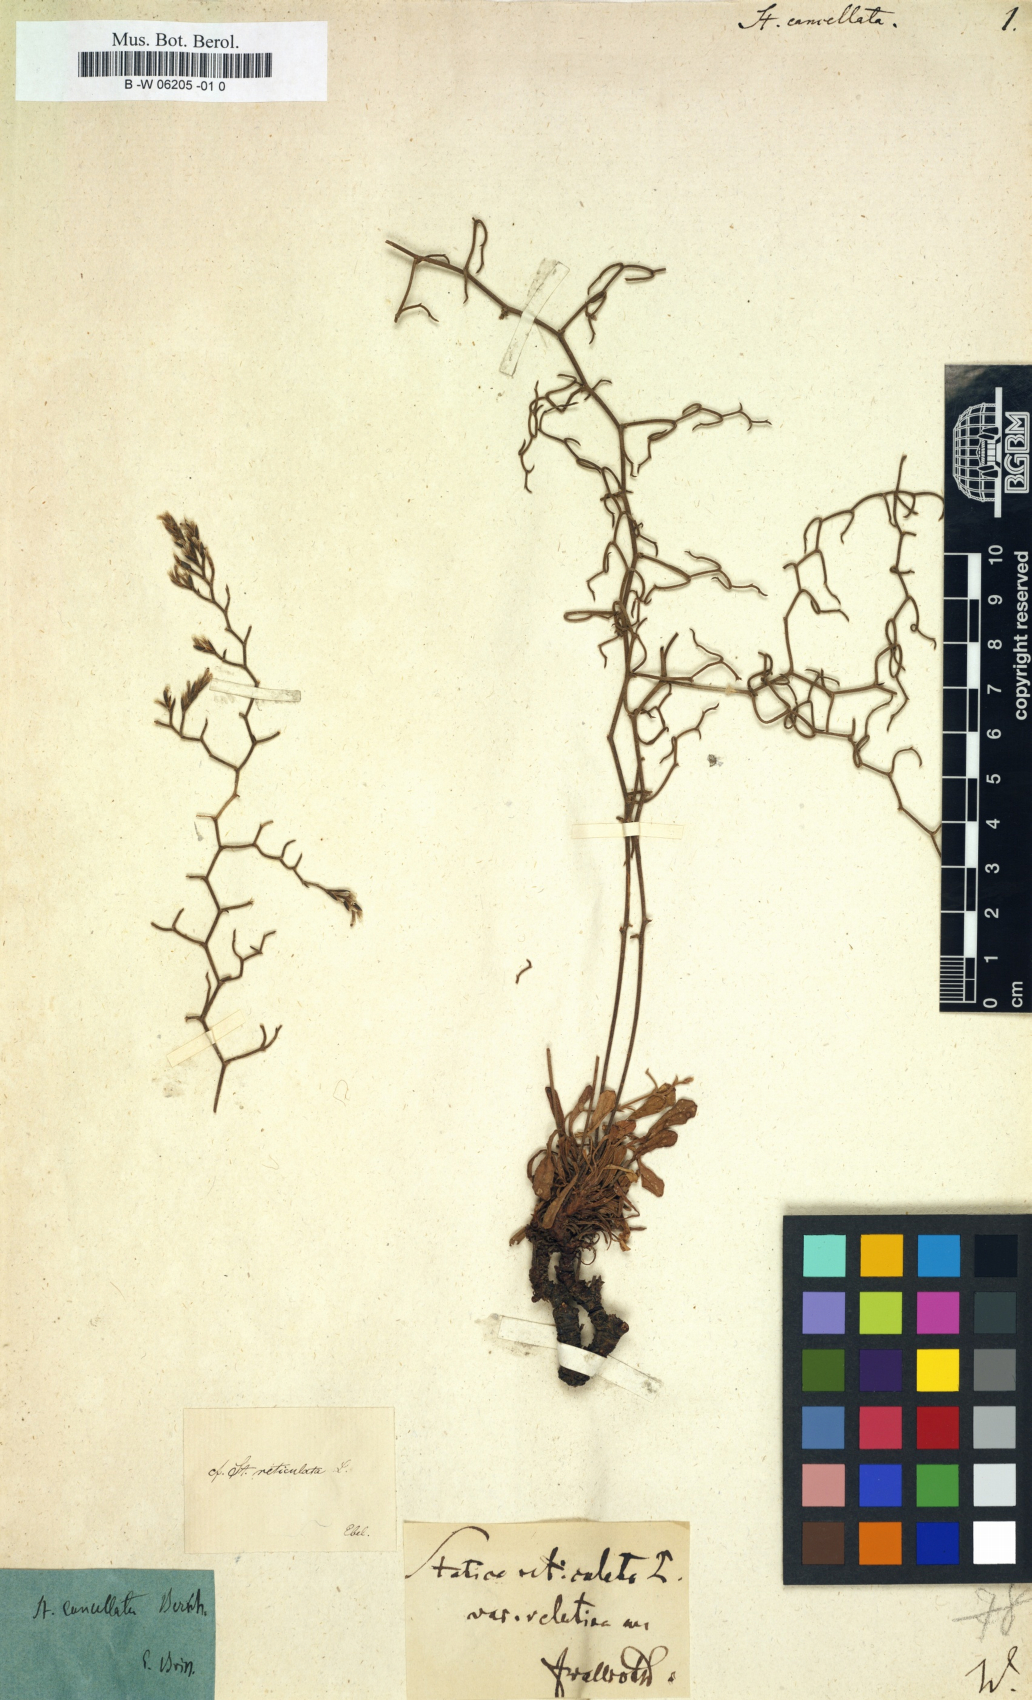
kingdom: Plantae
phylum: Tracheophyta
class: Magnoliopsida
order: Caryophyllales
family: Plumbaginaceae
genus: Limonium
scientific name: Limonium
